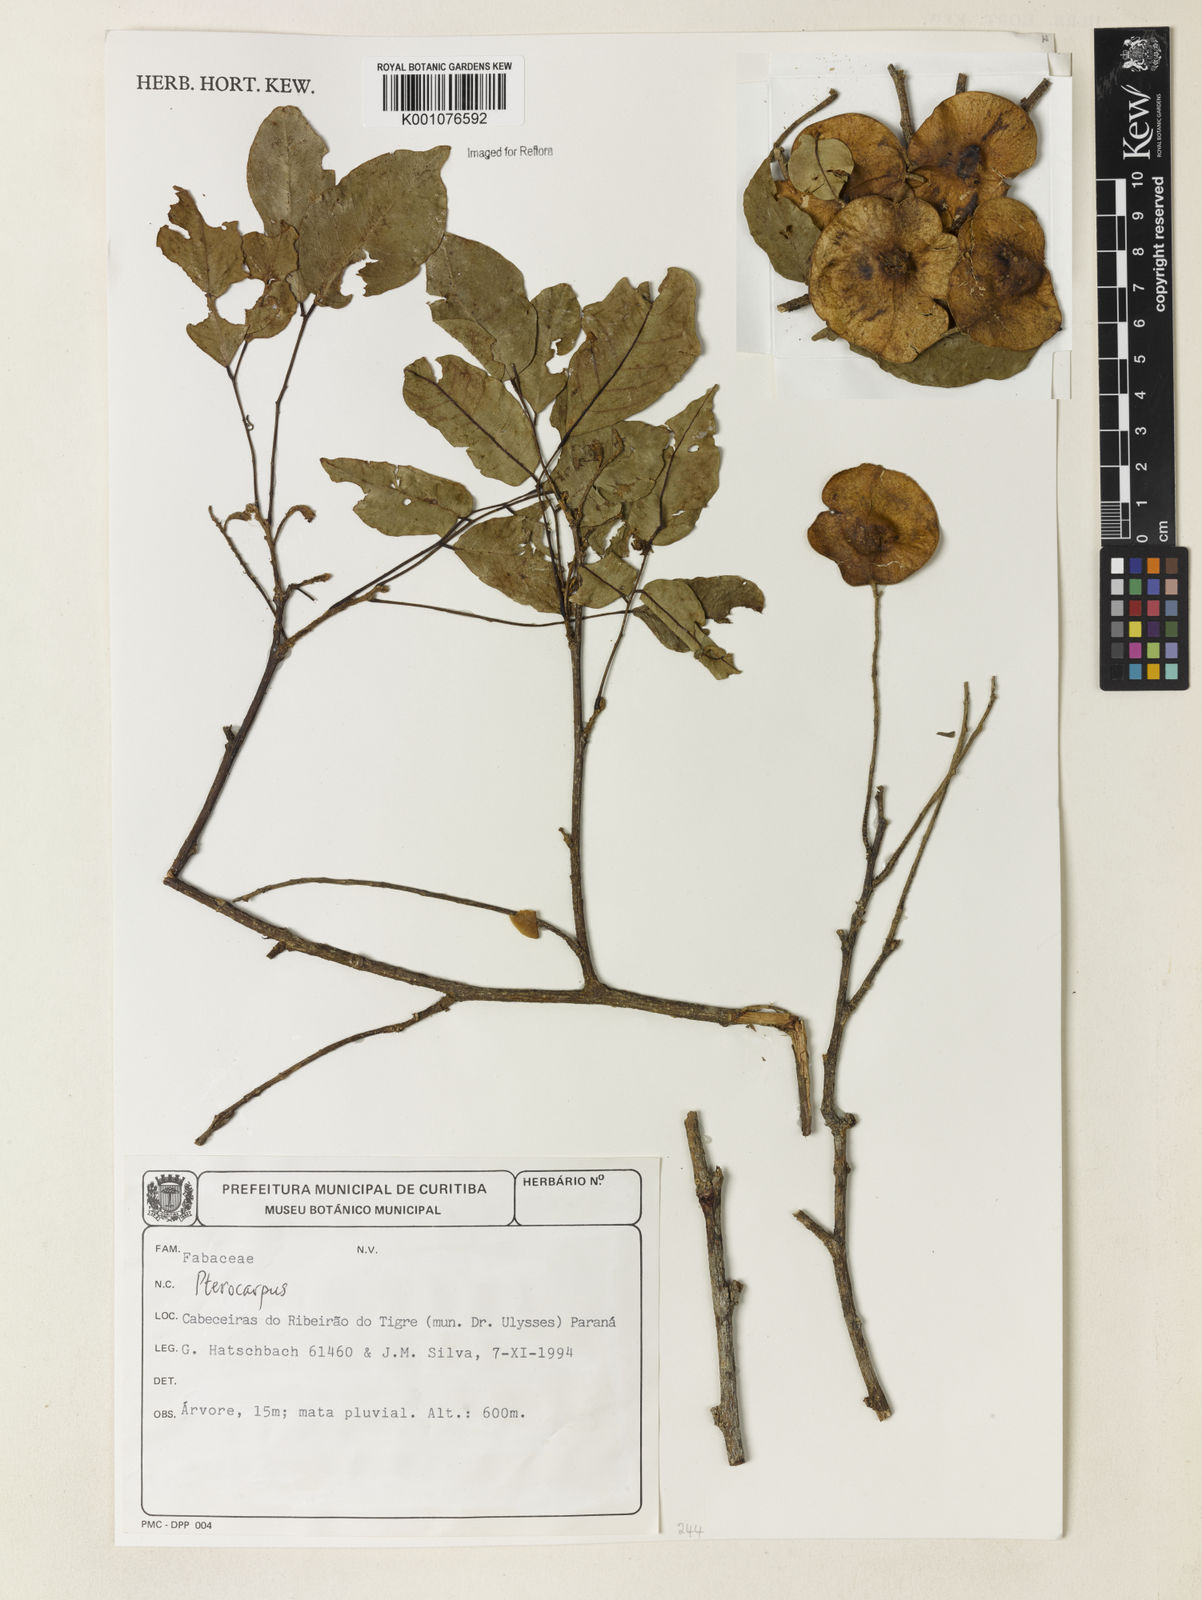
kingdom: Plantae
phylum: Tracheophyta
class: Magnoliopsida
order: Fabales
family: Fabaceae
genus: Pterocarpus
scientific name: Pterocarpus
